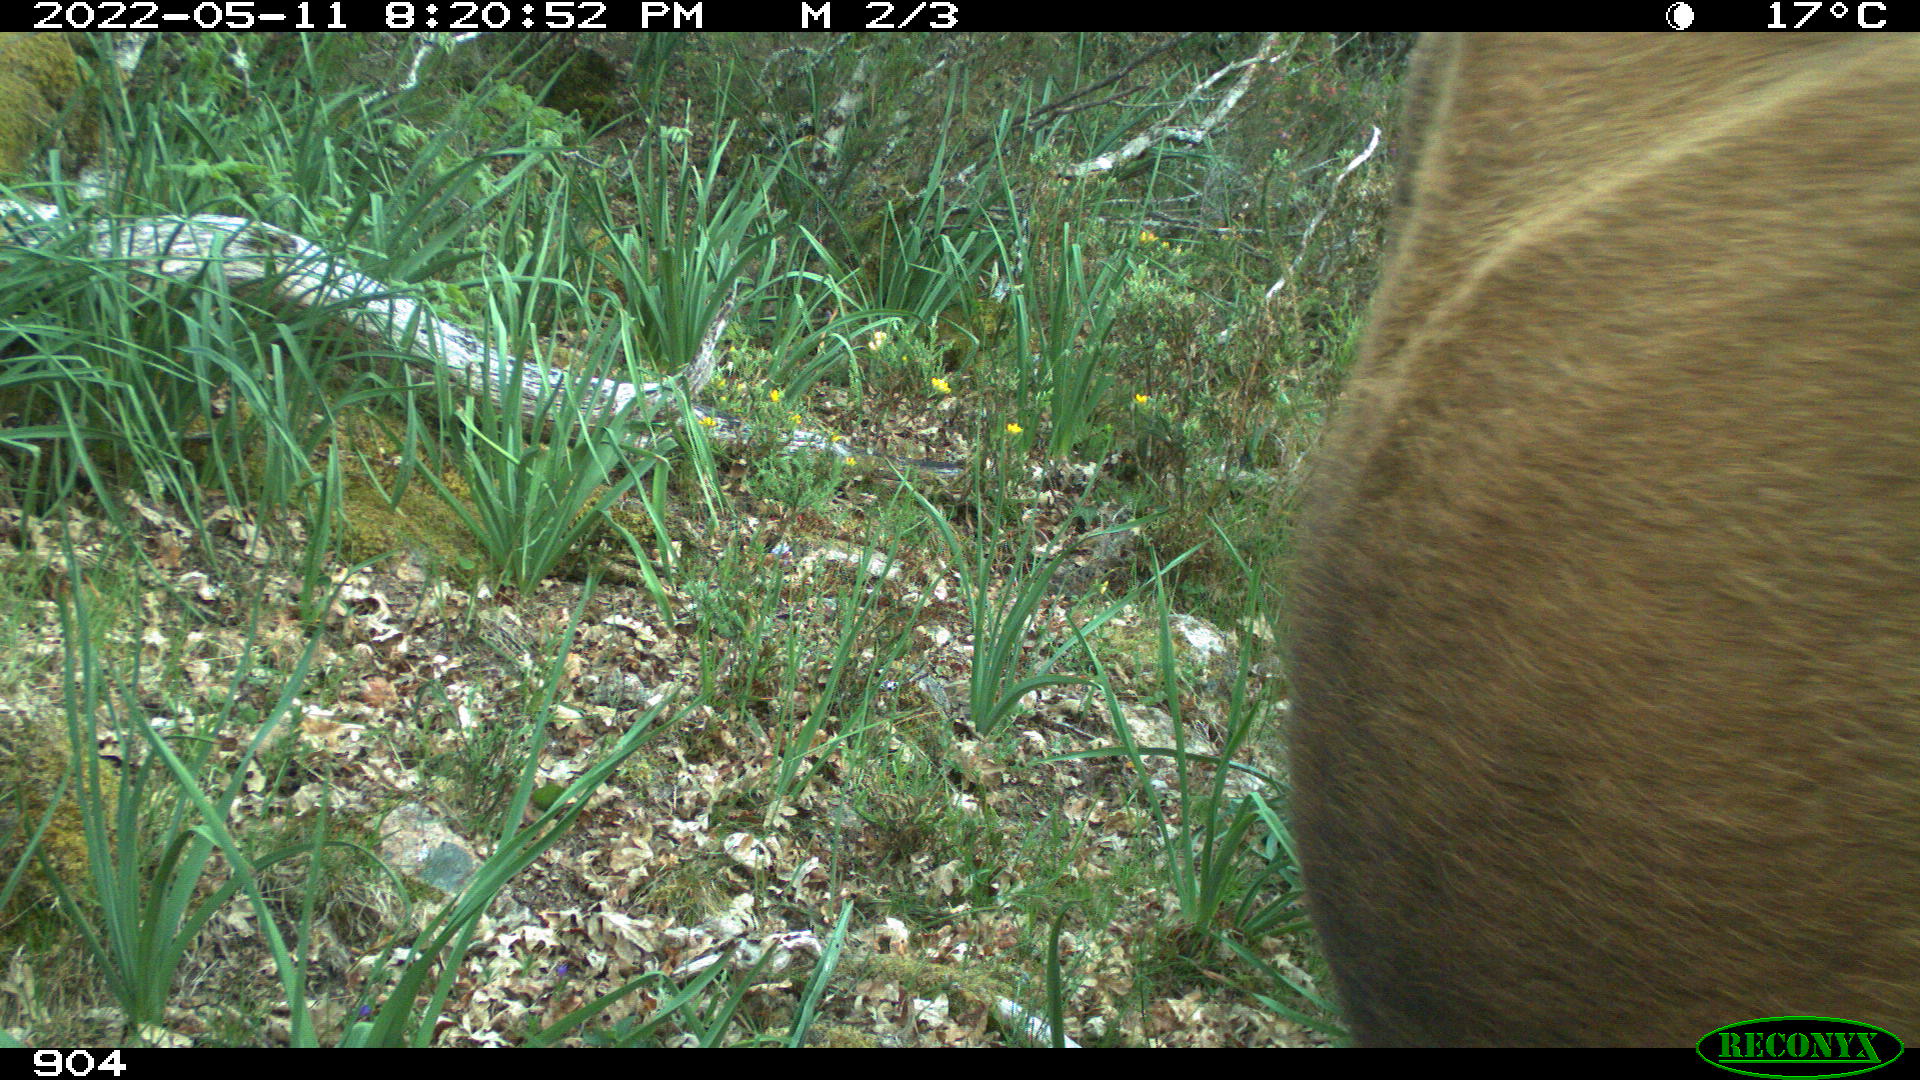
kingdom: Animalia
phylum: Chordata
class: Mammalia
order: Artiodactyla
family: Bovidae
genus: Bos
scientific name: Bos taurus
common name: Domesticated cattle
